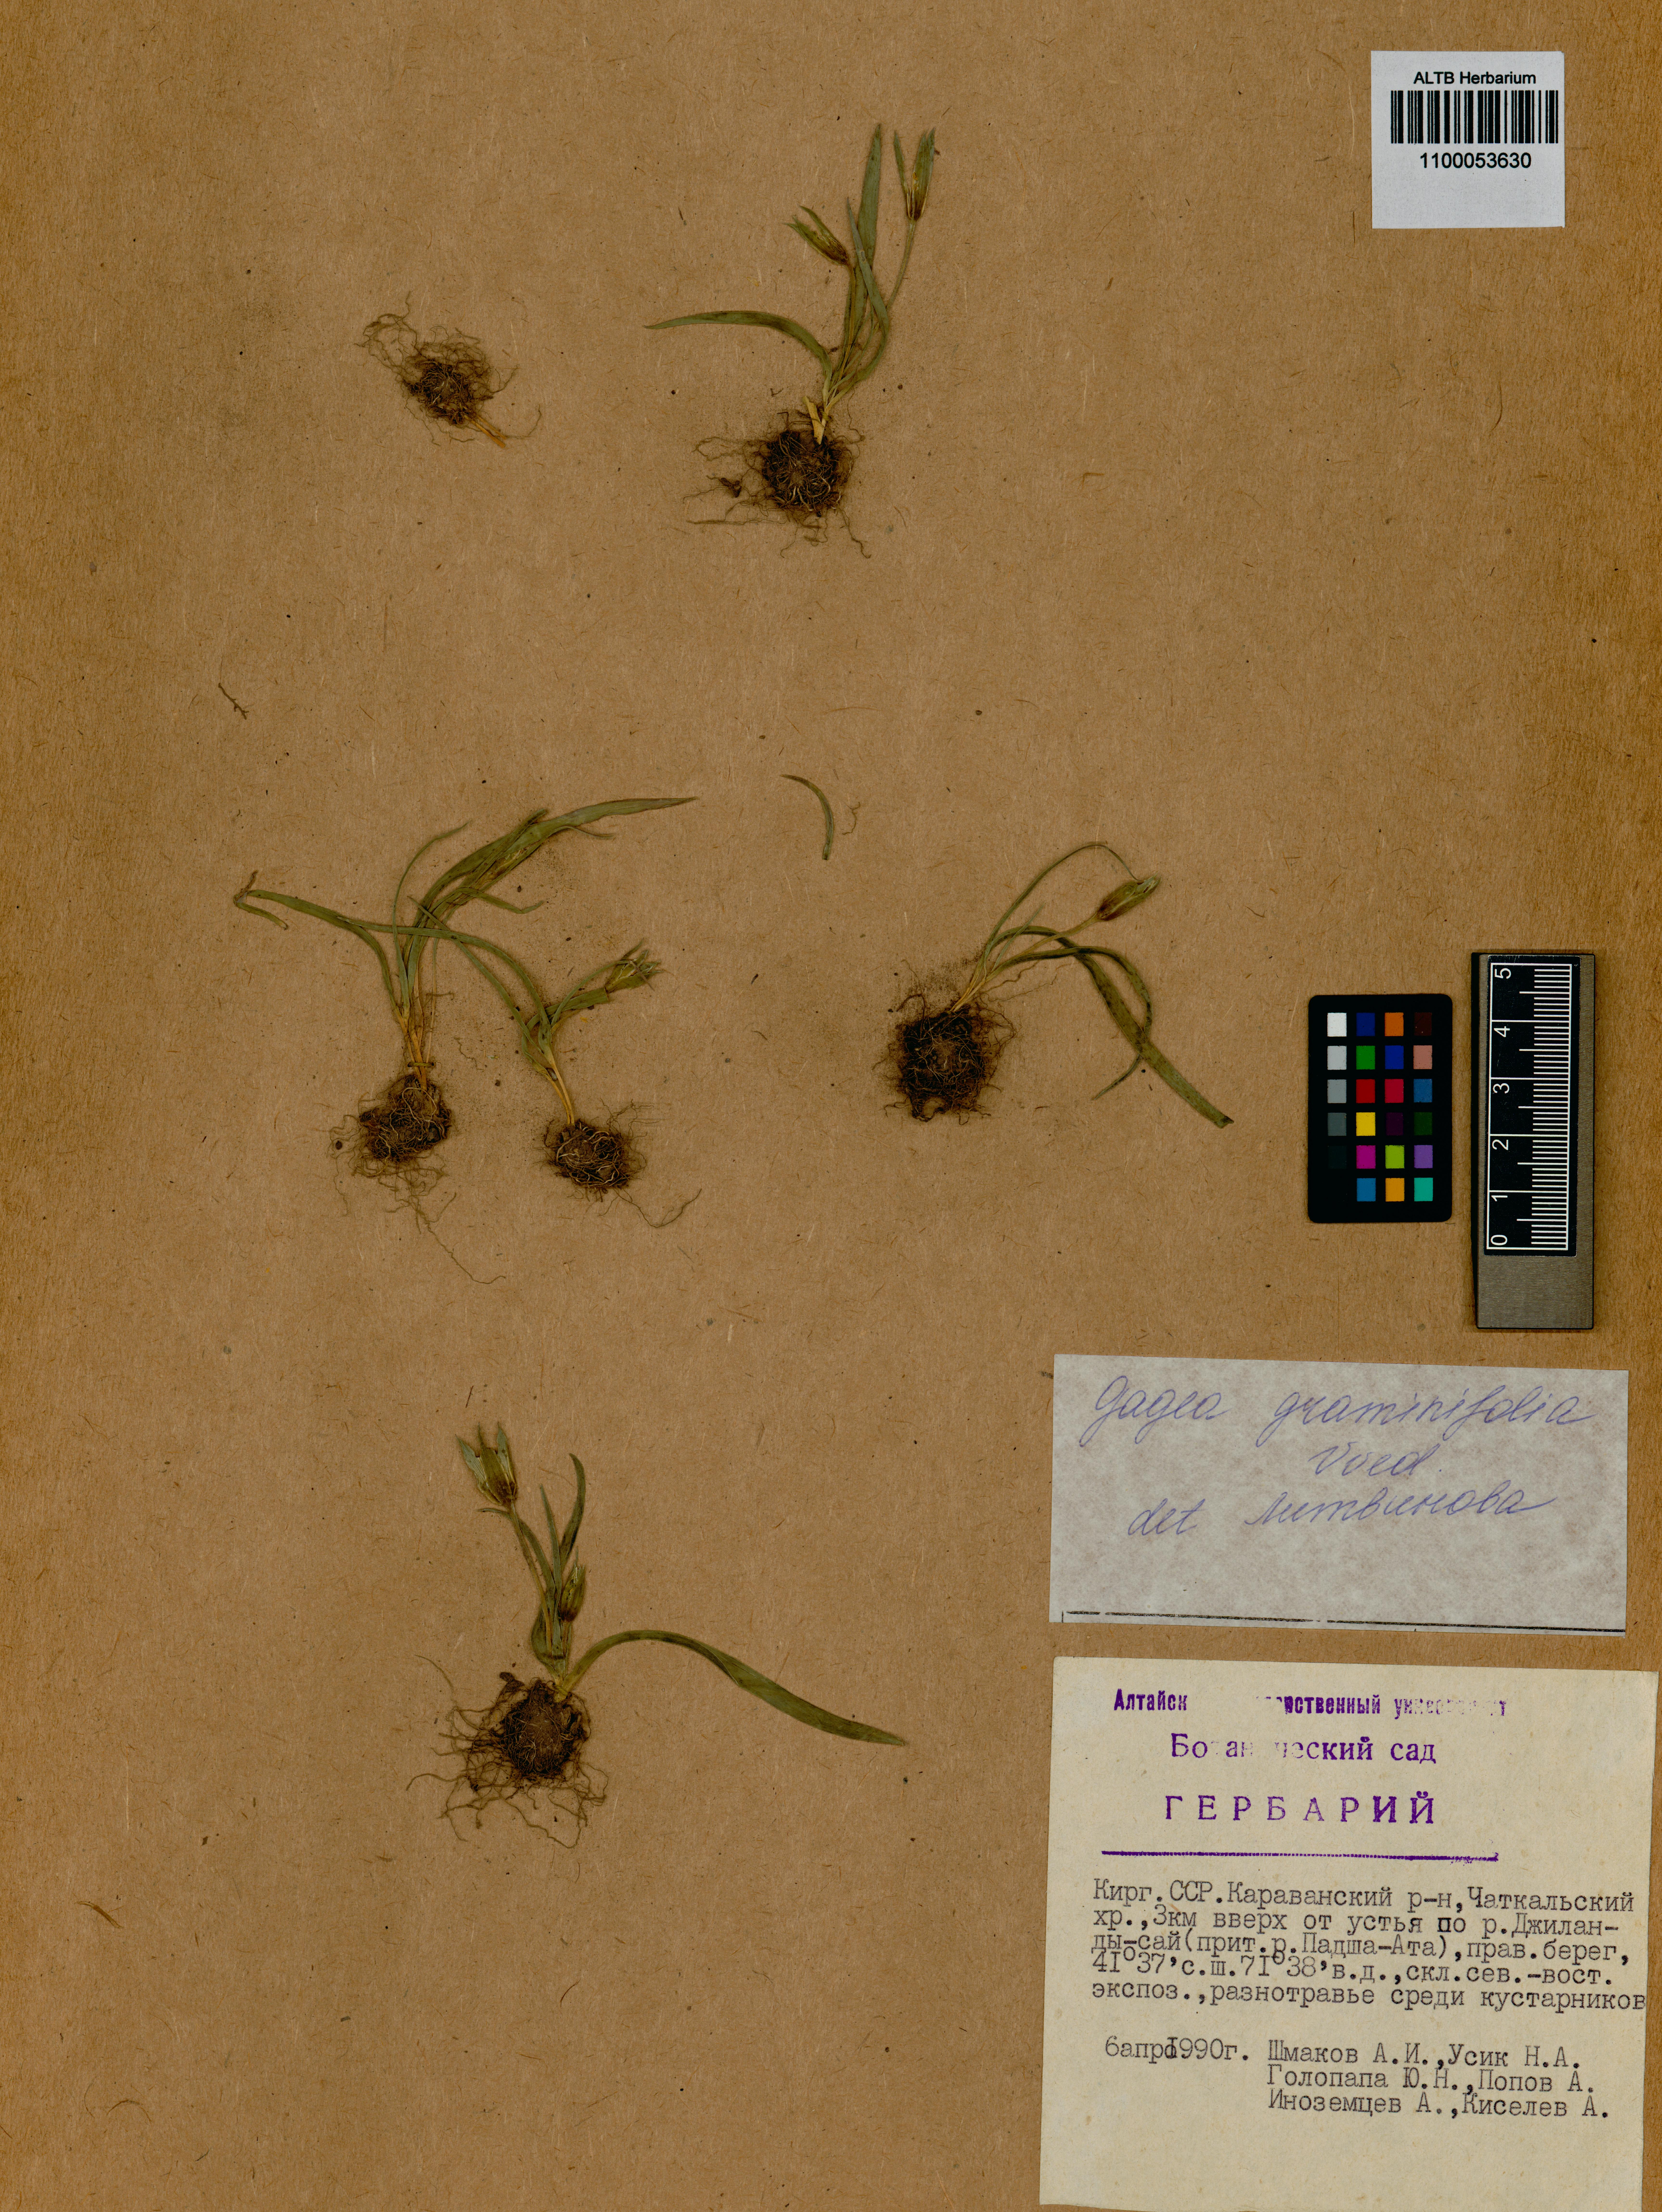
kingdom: Plantae
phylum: Tracheophyta
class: Liliopsida
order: Liliales
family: Liliaceae
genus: Gagea
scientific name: Gagea graminifolia
